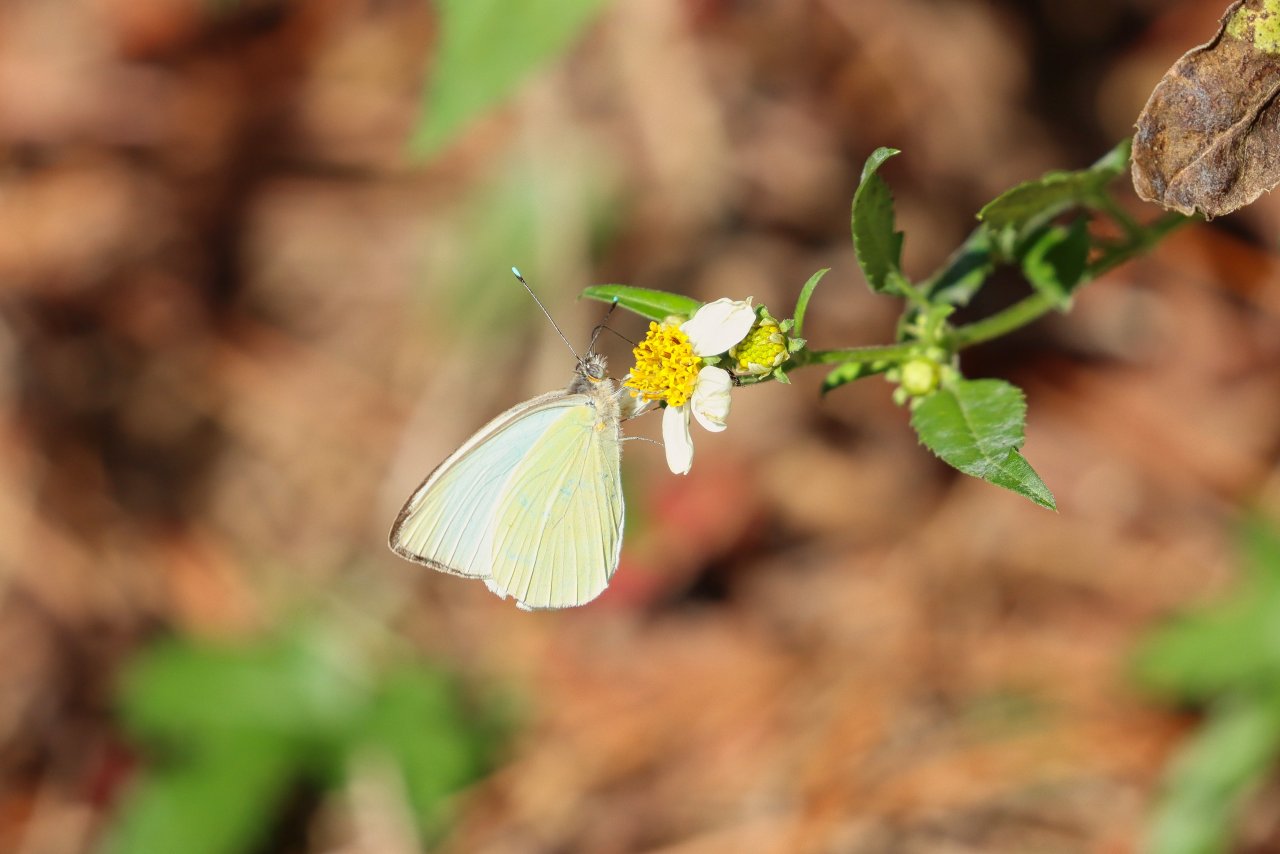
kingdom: Animalia
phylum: Arthropoda
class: Insecta
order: Lepidoptera
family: Pieridae
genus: Ascia
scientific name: Ascia monuste
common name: Great Southern White
